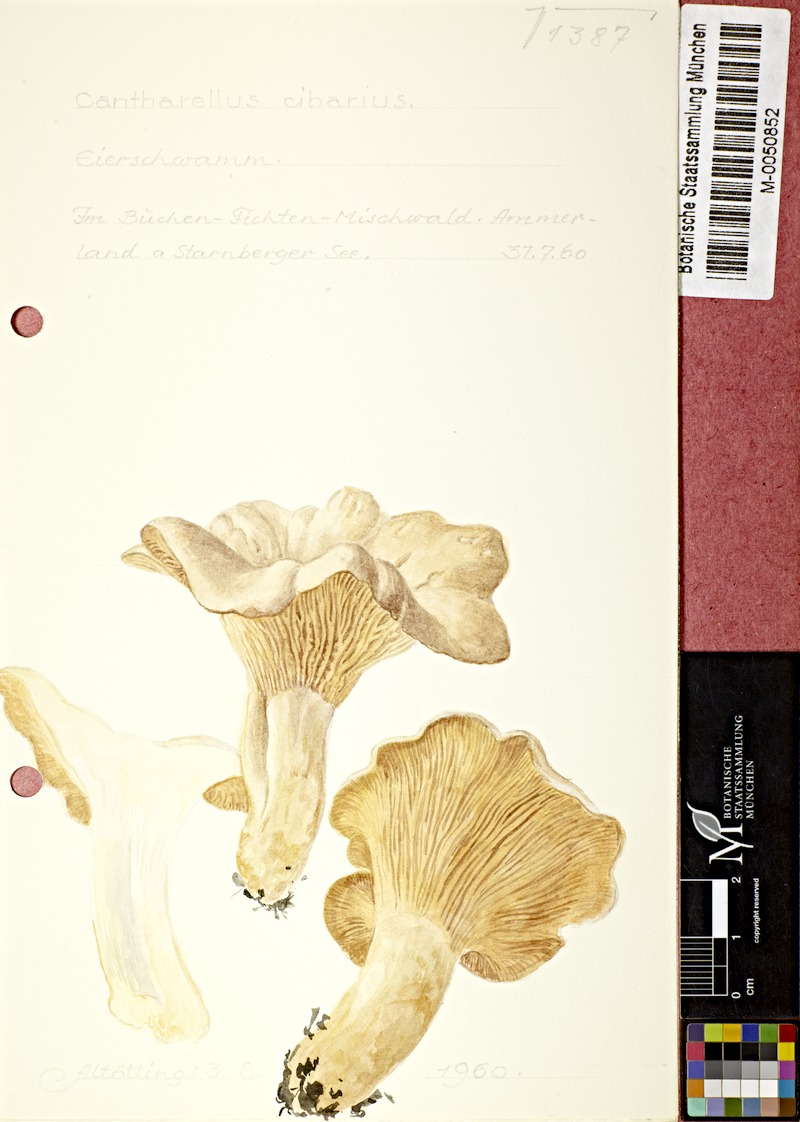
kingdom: Fungi
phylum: Basidiomycota
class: Agaricomycetes
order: Cantharellales
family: Hydnaceae
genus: Cantharellus
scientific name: Cantharellus cibarius
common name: Chanterelle
